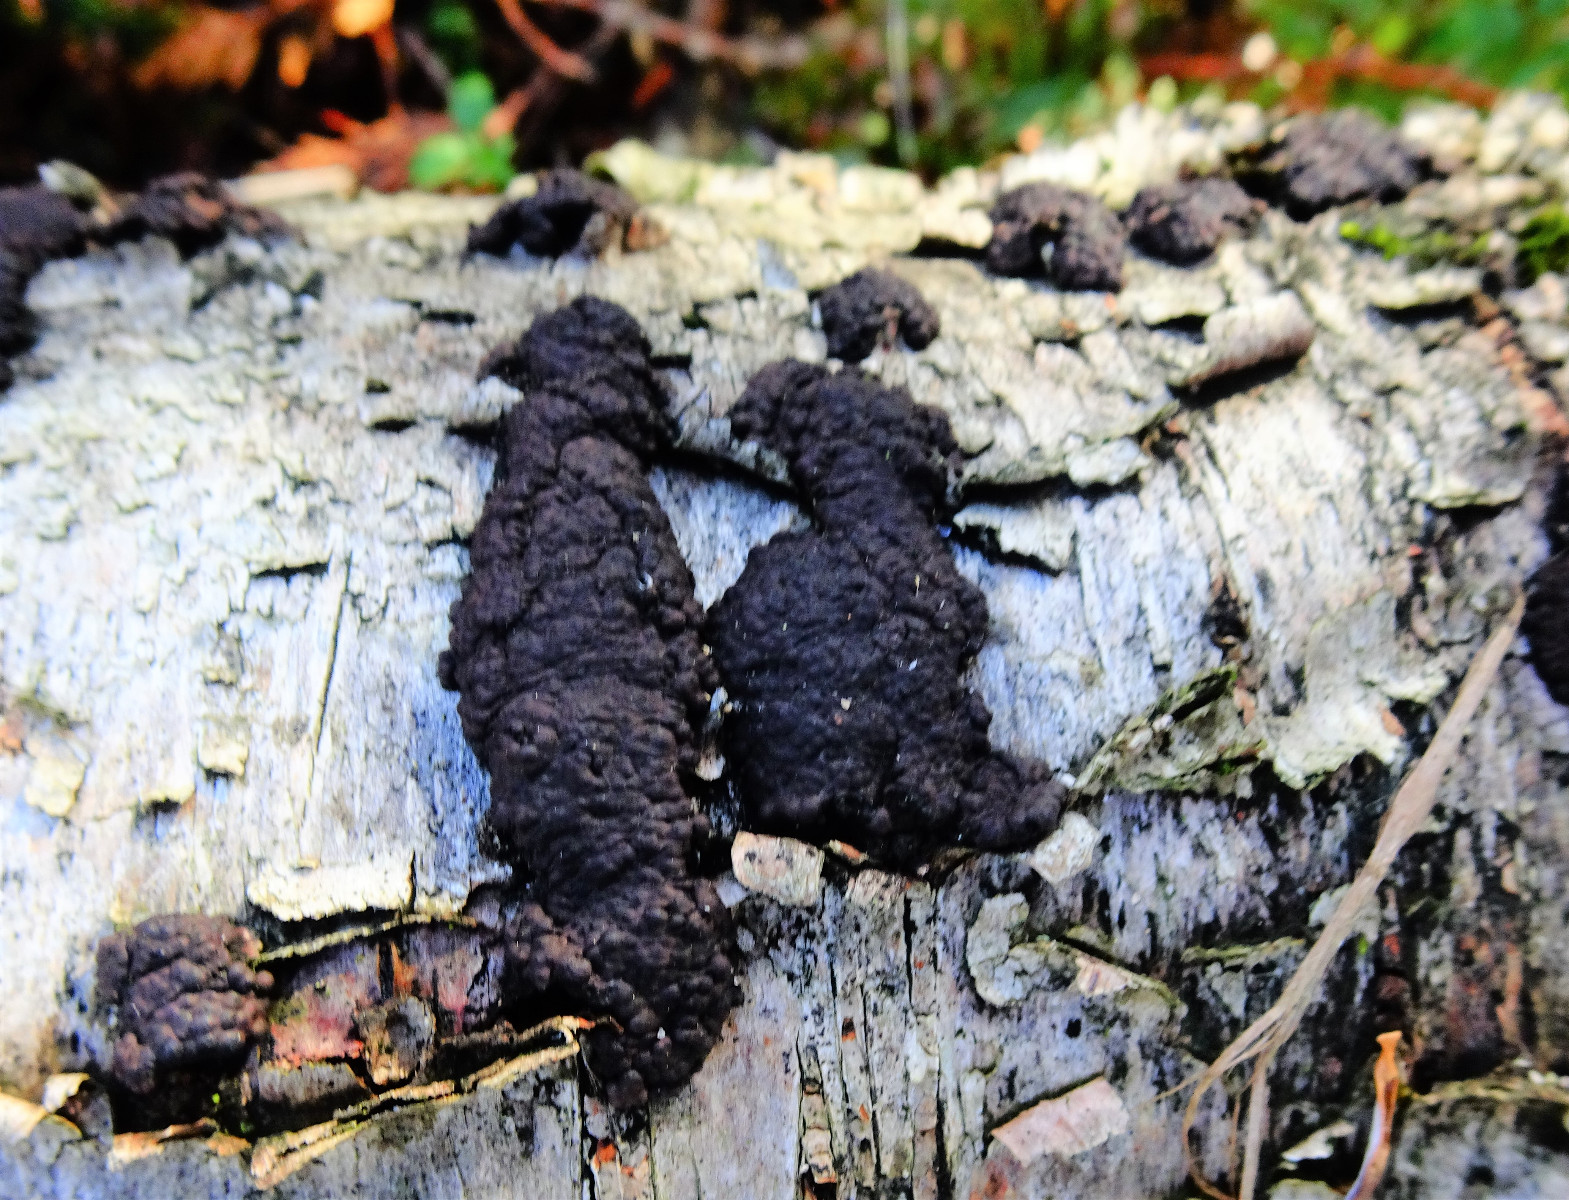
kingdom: Fungi
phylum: Ascomycota
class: Sordariomycetes
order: Xylariales
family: Hypoxylaceae
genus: Jackrogersella
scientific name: Jackrogersella multiformis
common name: foranderlig kulbær
